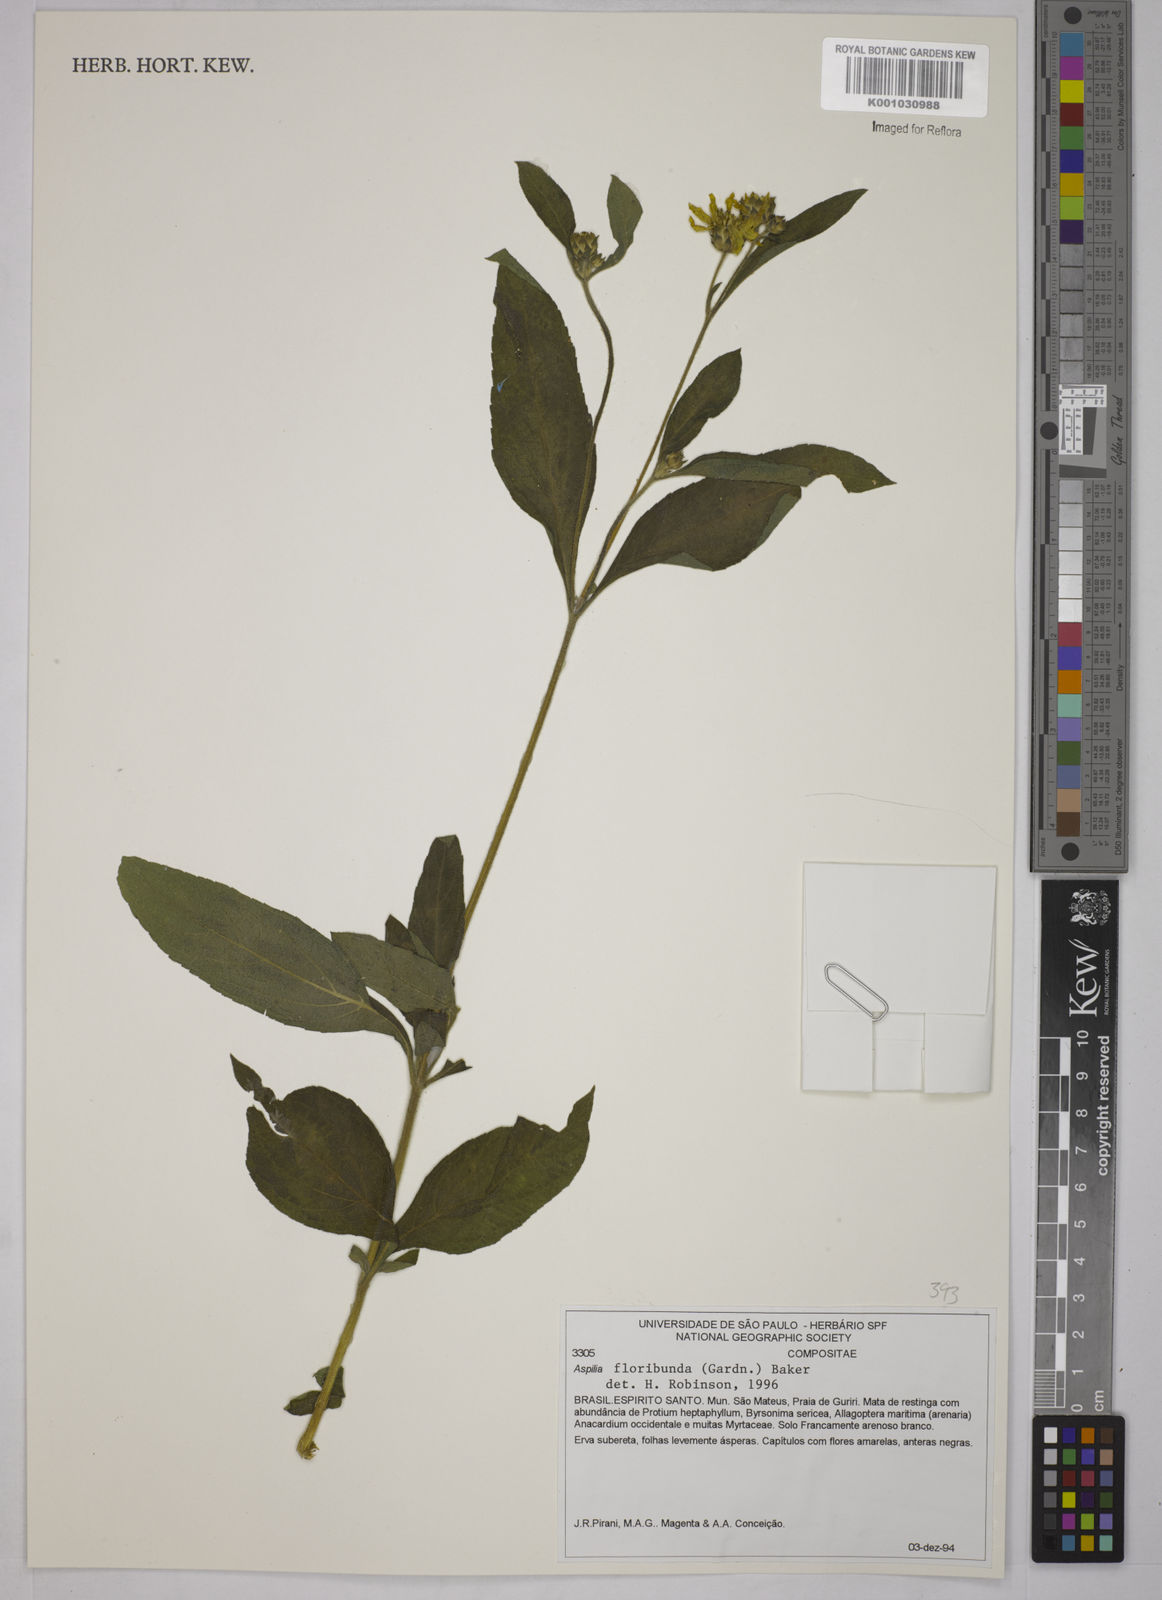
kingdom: Plantae
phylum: Tracheophyta
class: Magnoliopsida
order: Asterales
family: Asteraceae
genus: Wedelia
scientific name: Wedelia floribunda
